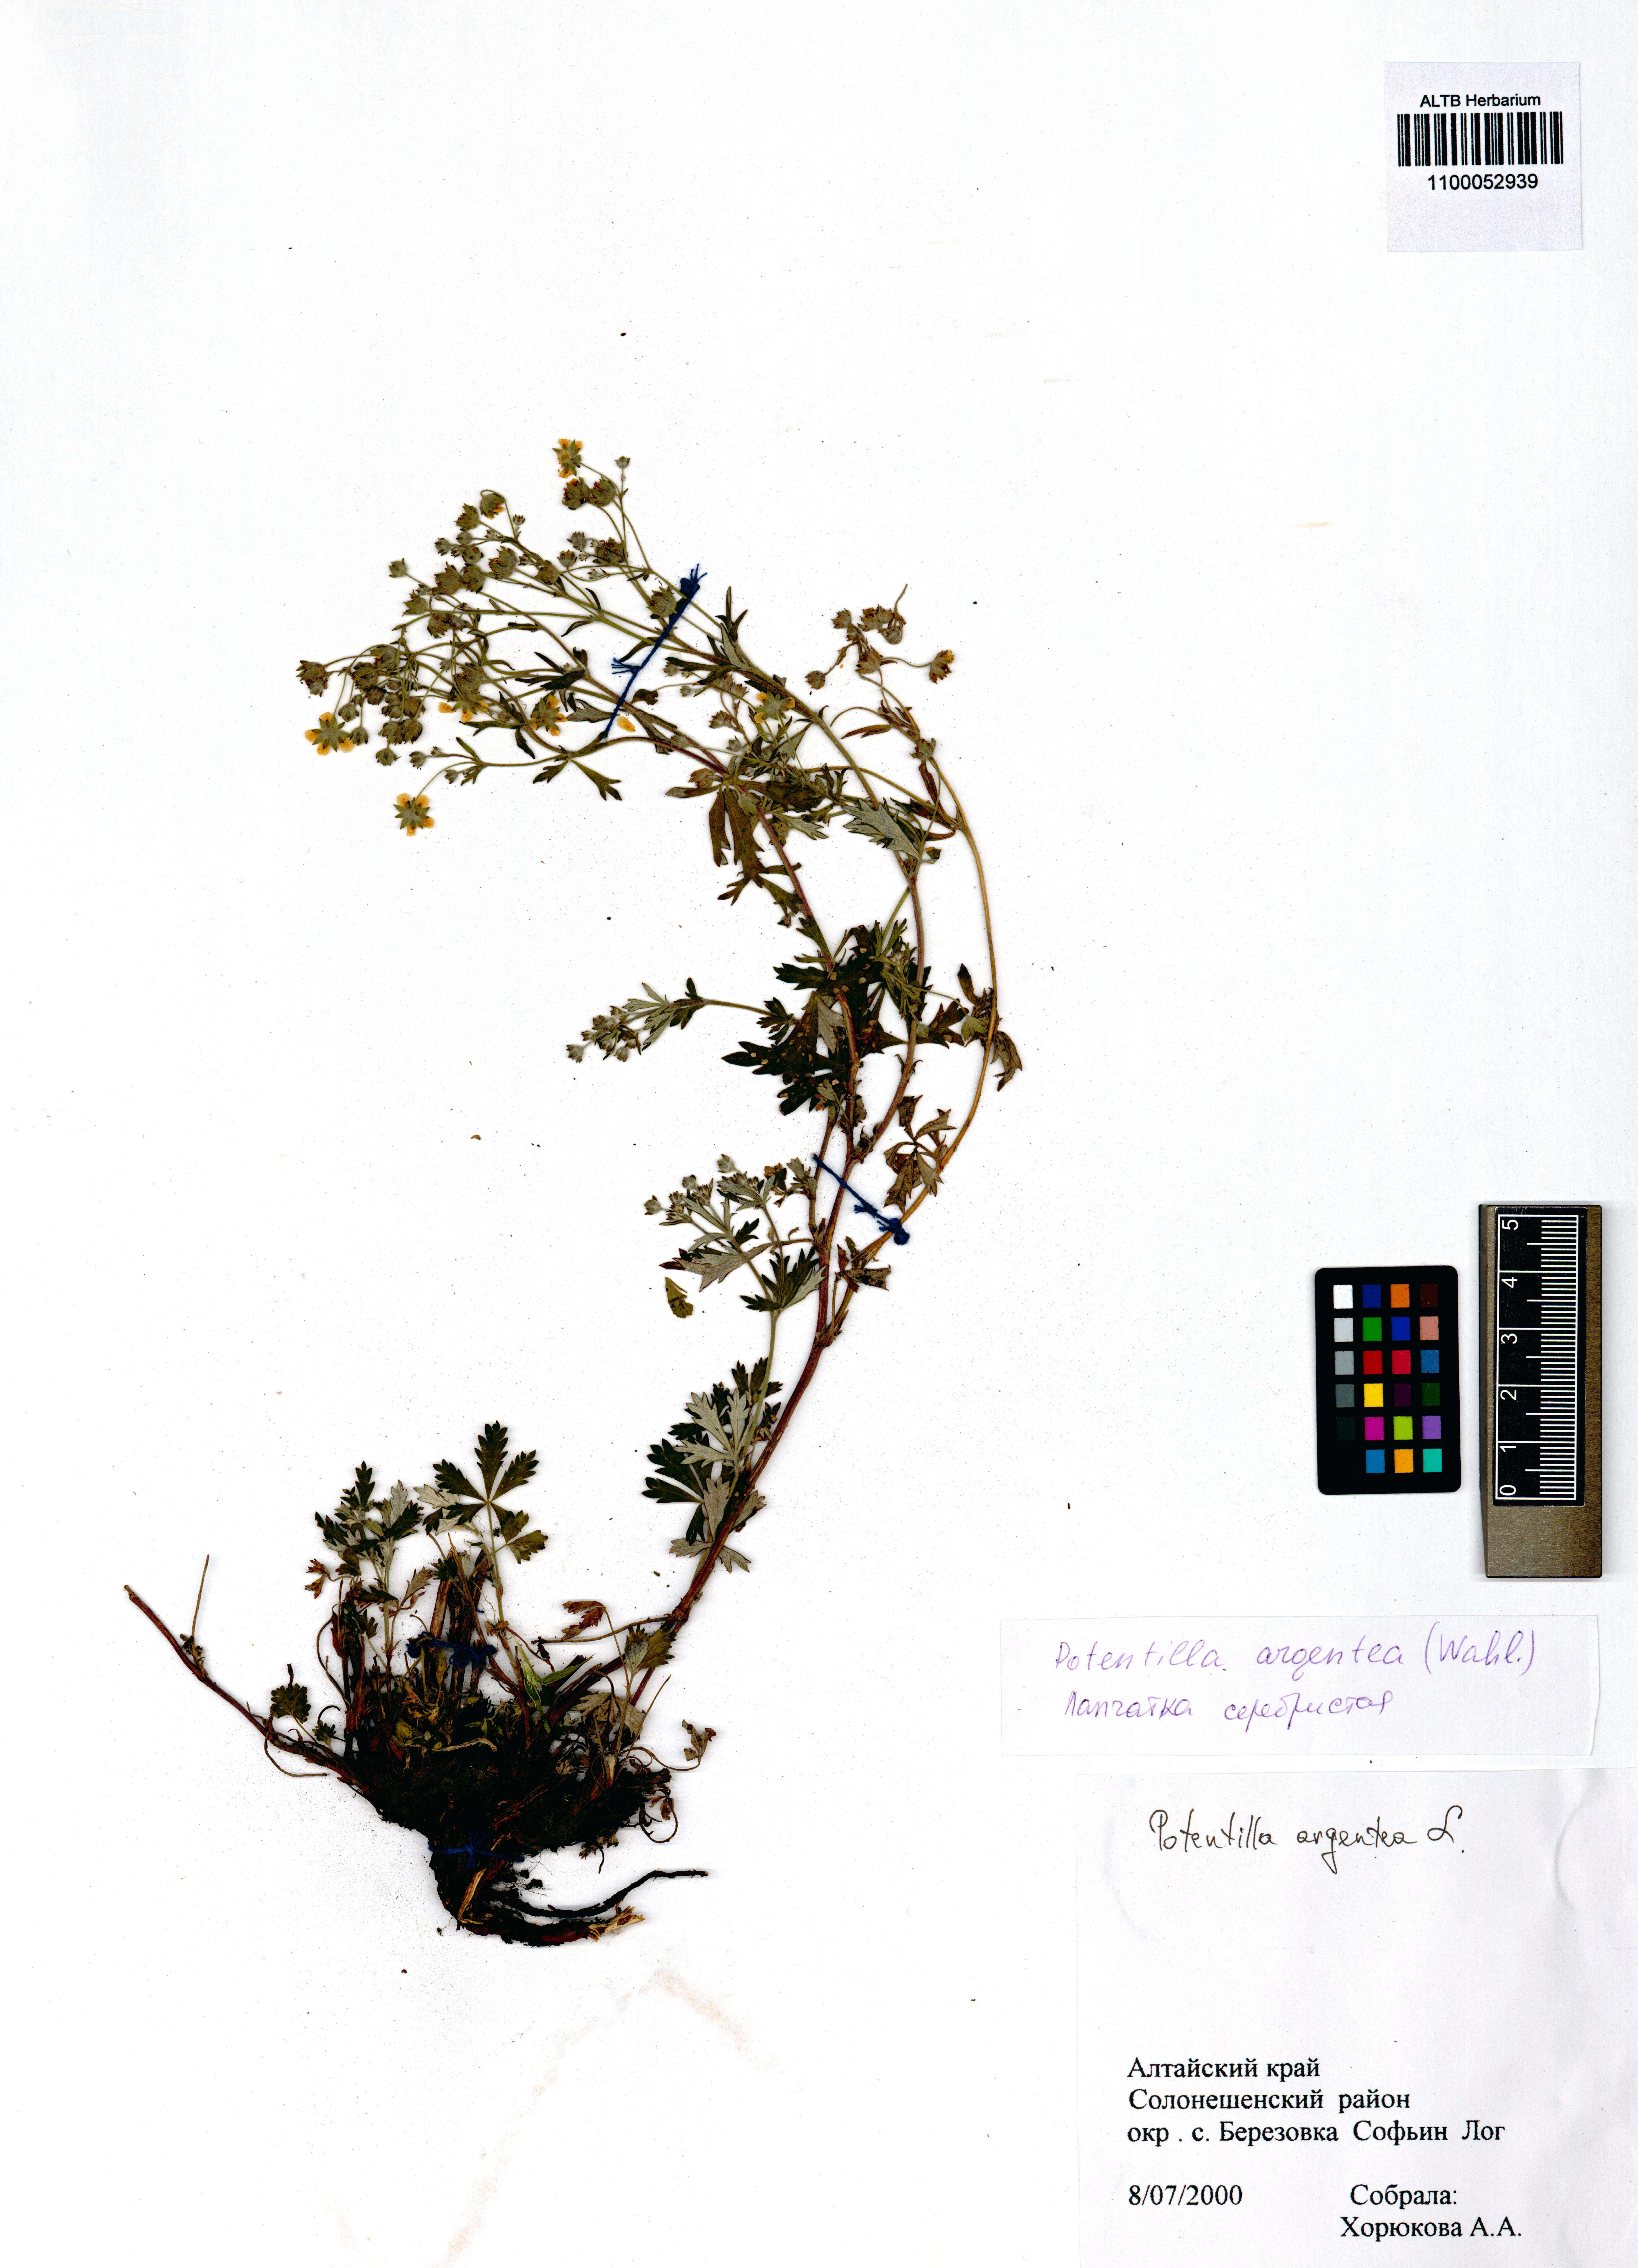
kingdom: Plantae
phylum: Tracheophyta
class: Magnoliopsida
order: Rosales
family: Rosaceae
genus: Potentilla
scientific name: Potentilla argentea
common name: Hoary cinquefoil
